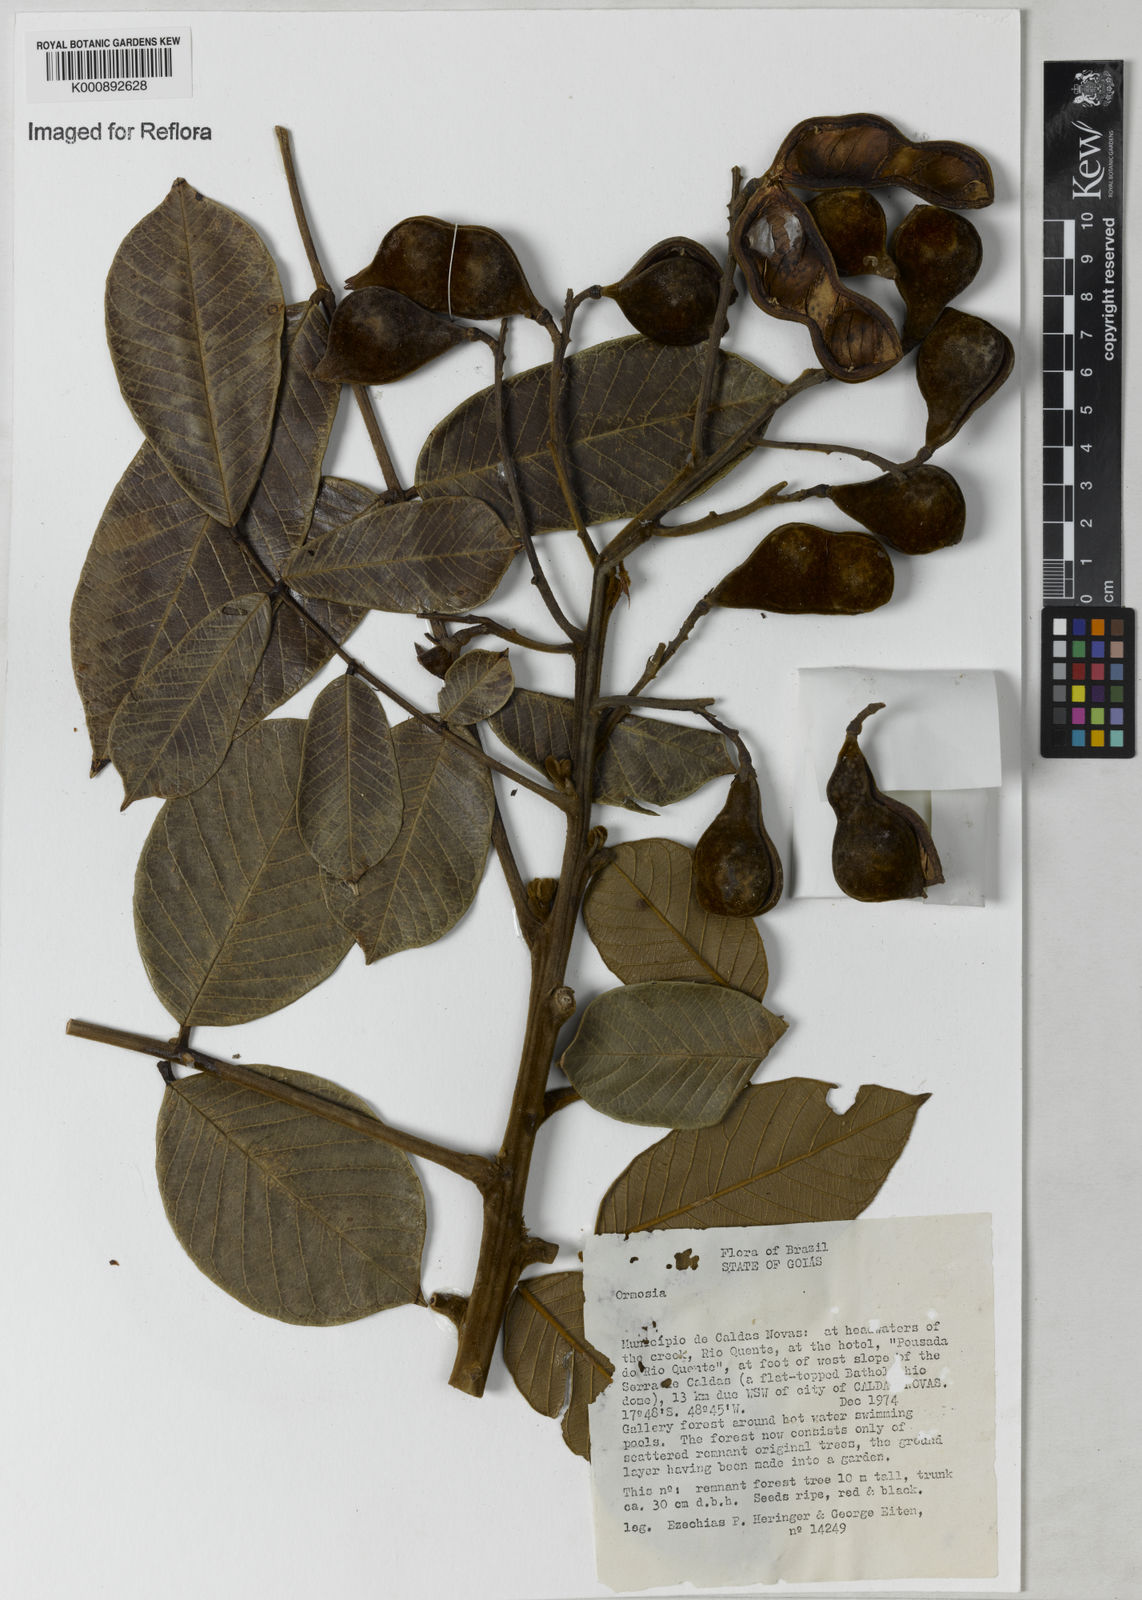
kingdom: Plantae
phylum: Tracheophyta
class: Magnoliopsida
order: Fabales
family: Fabaceae
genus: Ormosia
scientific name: Ormosia
